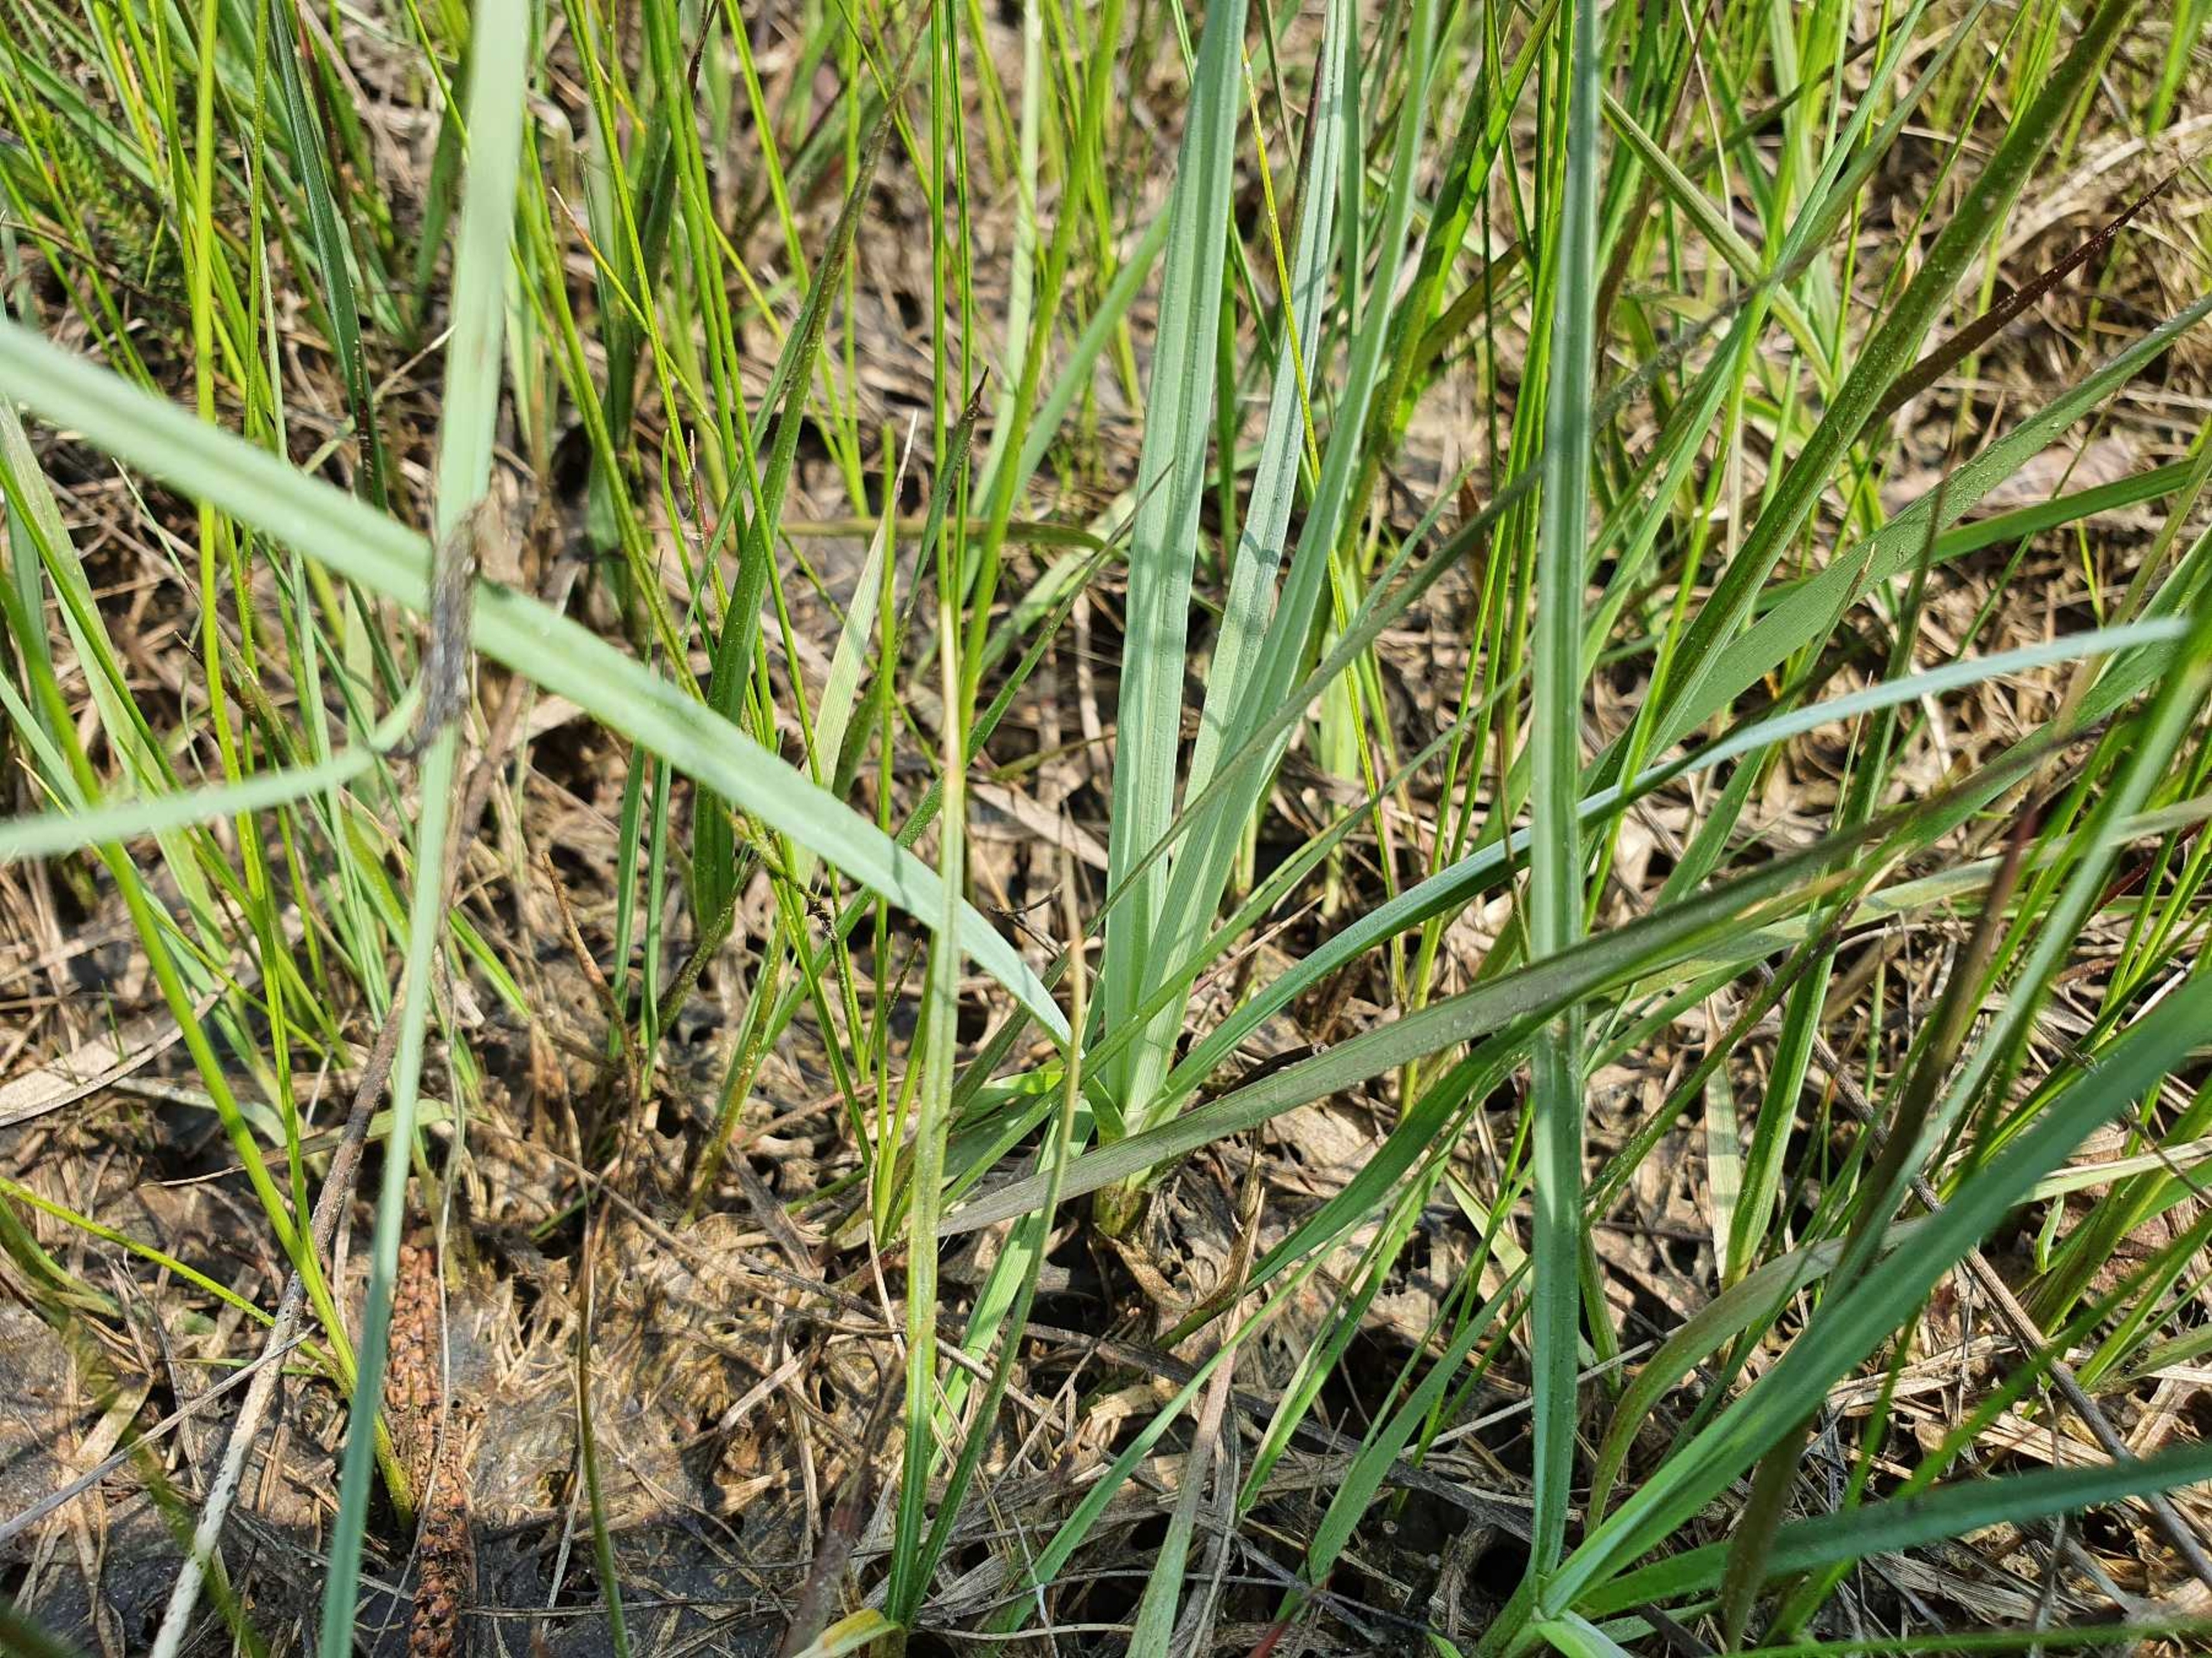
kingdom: Plantae
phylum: Tracheophyta
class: Liliopsida
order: Poales
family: Cyperaceae
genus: Carex
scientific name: Carex panicea
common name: Hirse-star
